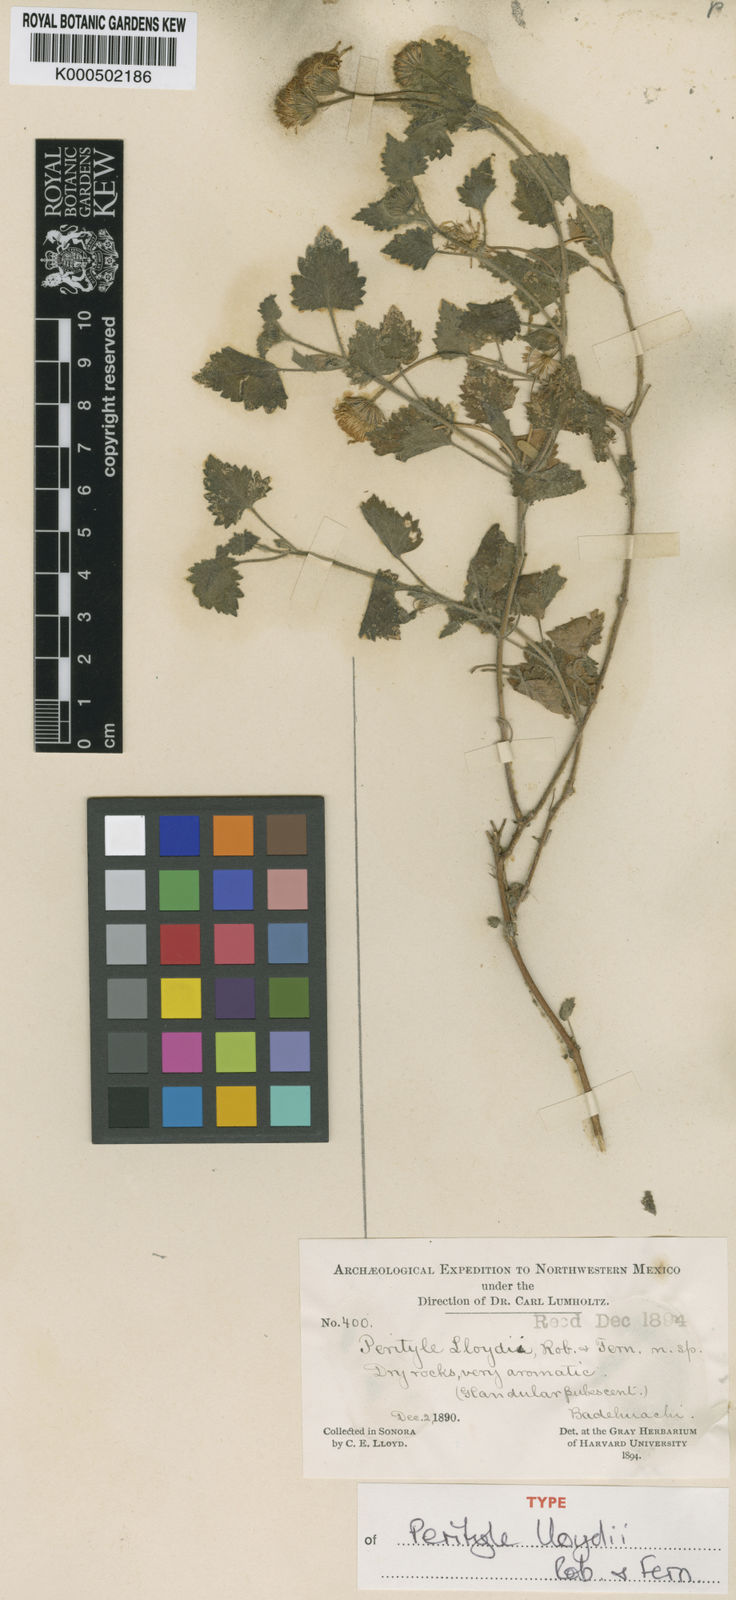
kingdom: Plantae
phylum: Tracheophyta
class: Magnoliopsida
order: Asterales
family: Asteraceae
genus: Laphamia
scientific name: Laphamia lloydii
